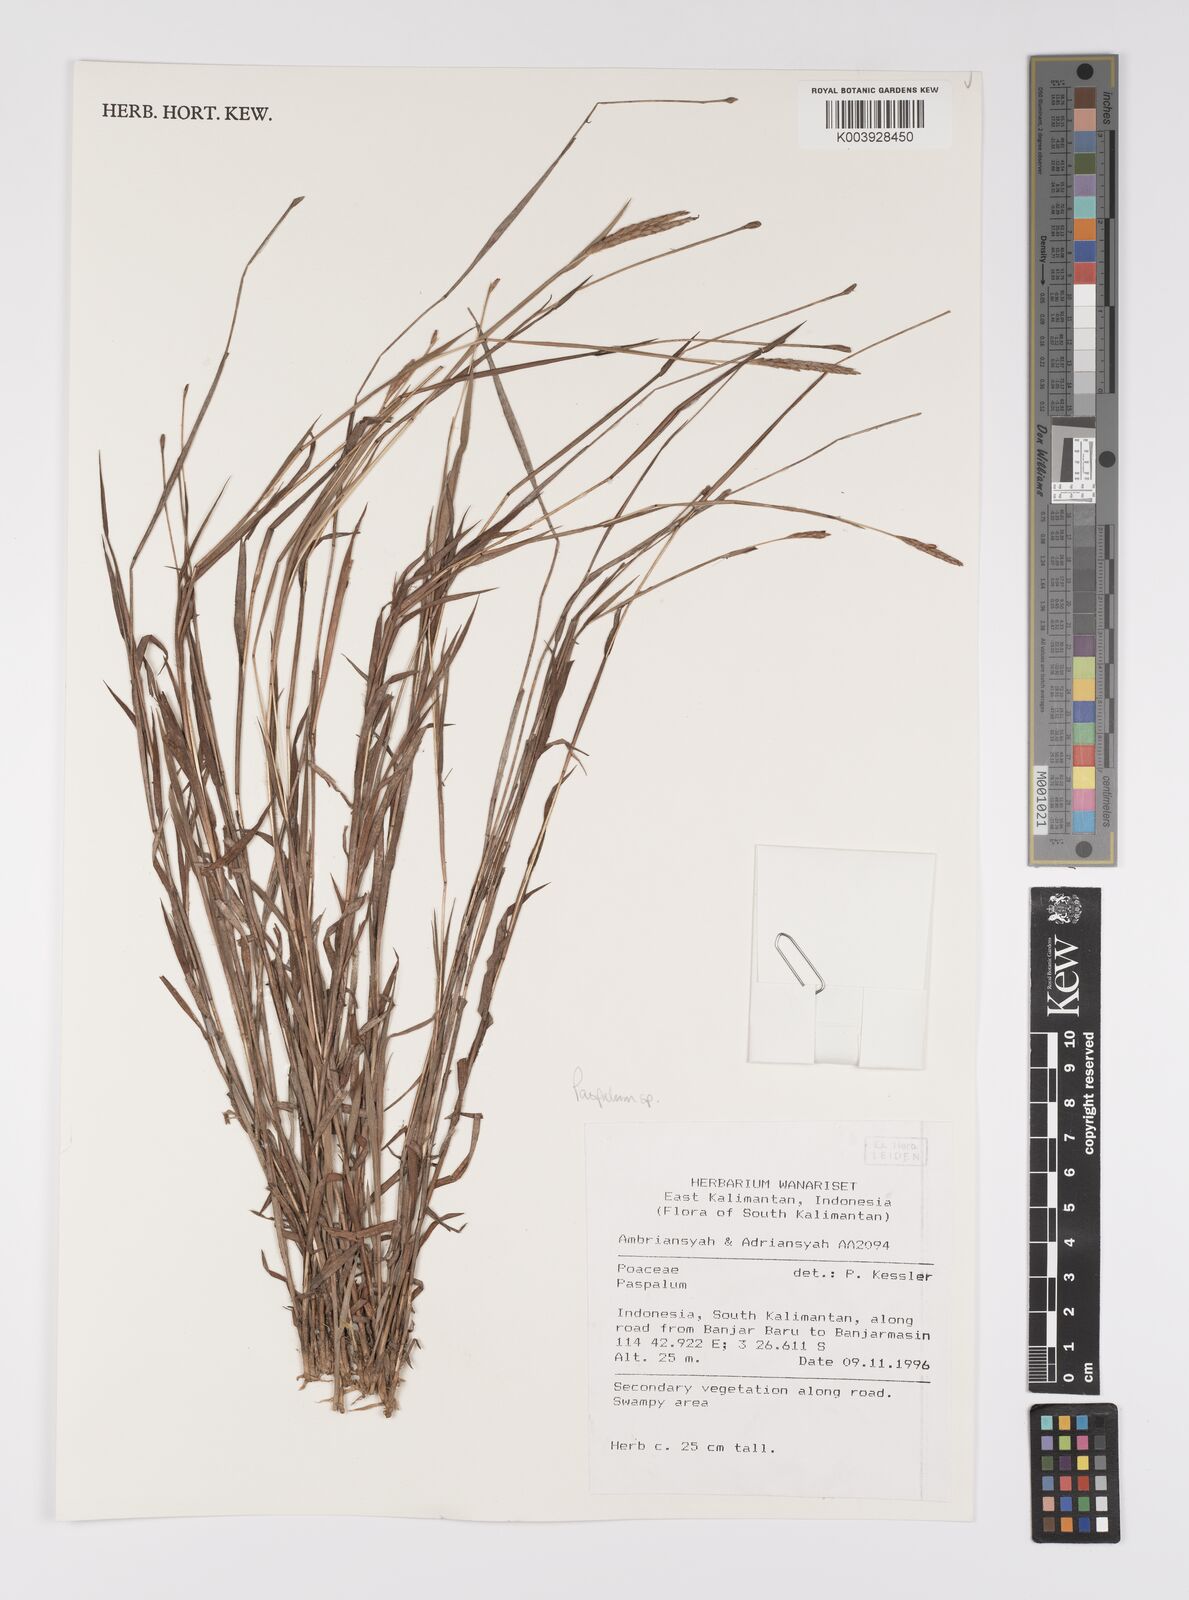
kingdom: Plantae
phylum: Tracheophyta
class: Liliopsida
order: Poales
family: Poaceae
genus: Paspalum
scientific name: Paspalum
